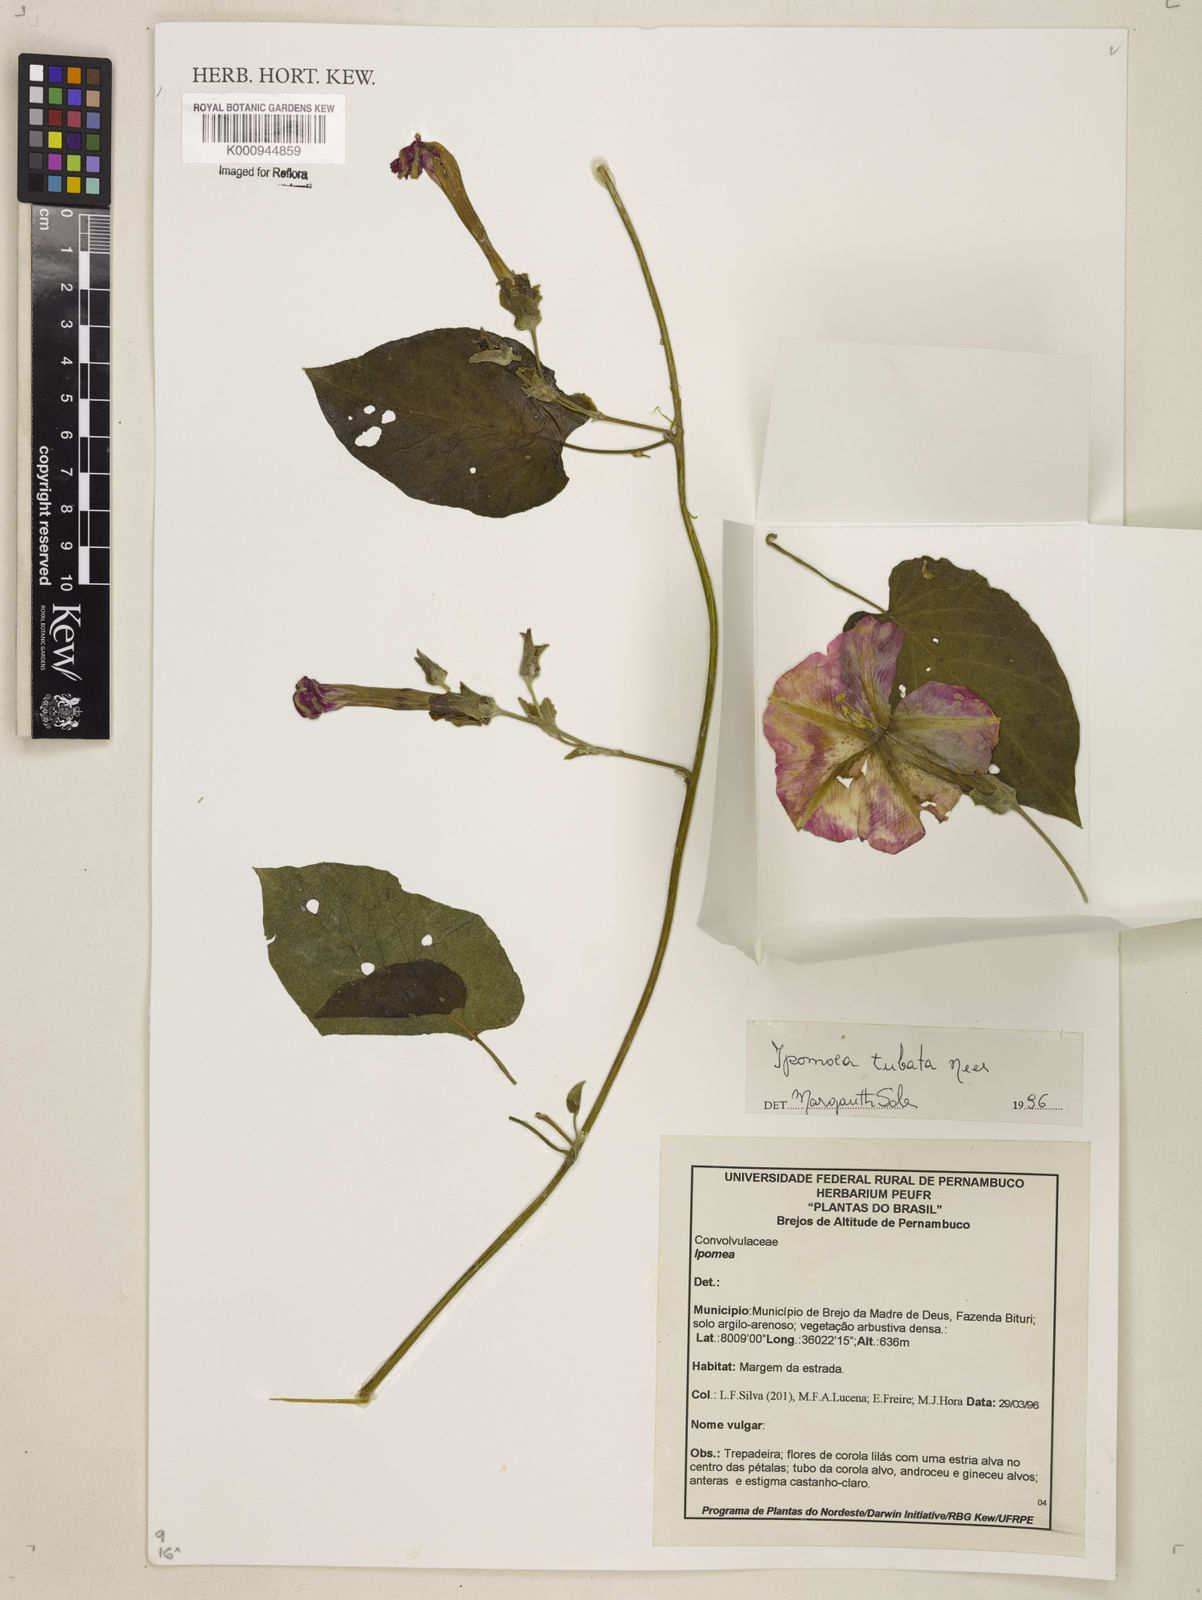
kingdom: Plantae
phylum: Tracheophyta
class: Magnoliopsida
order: Solanales
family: Convolvulaceae
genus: Ipomoea
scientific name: Ipomoea sidifolia
